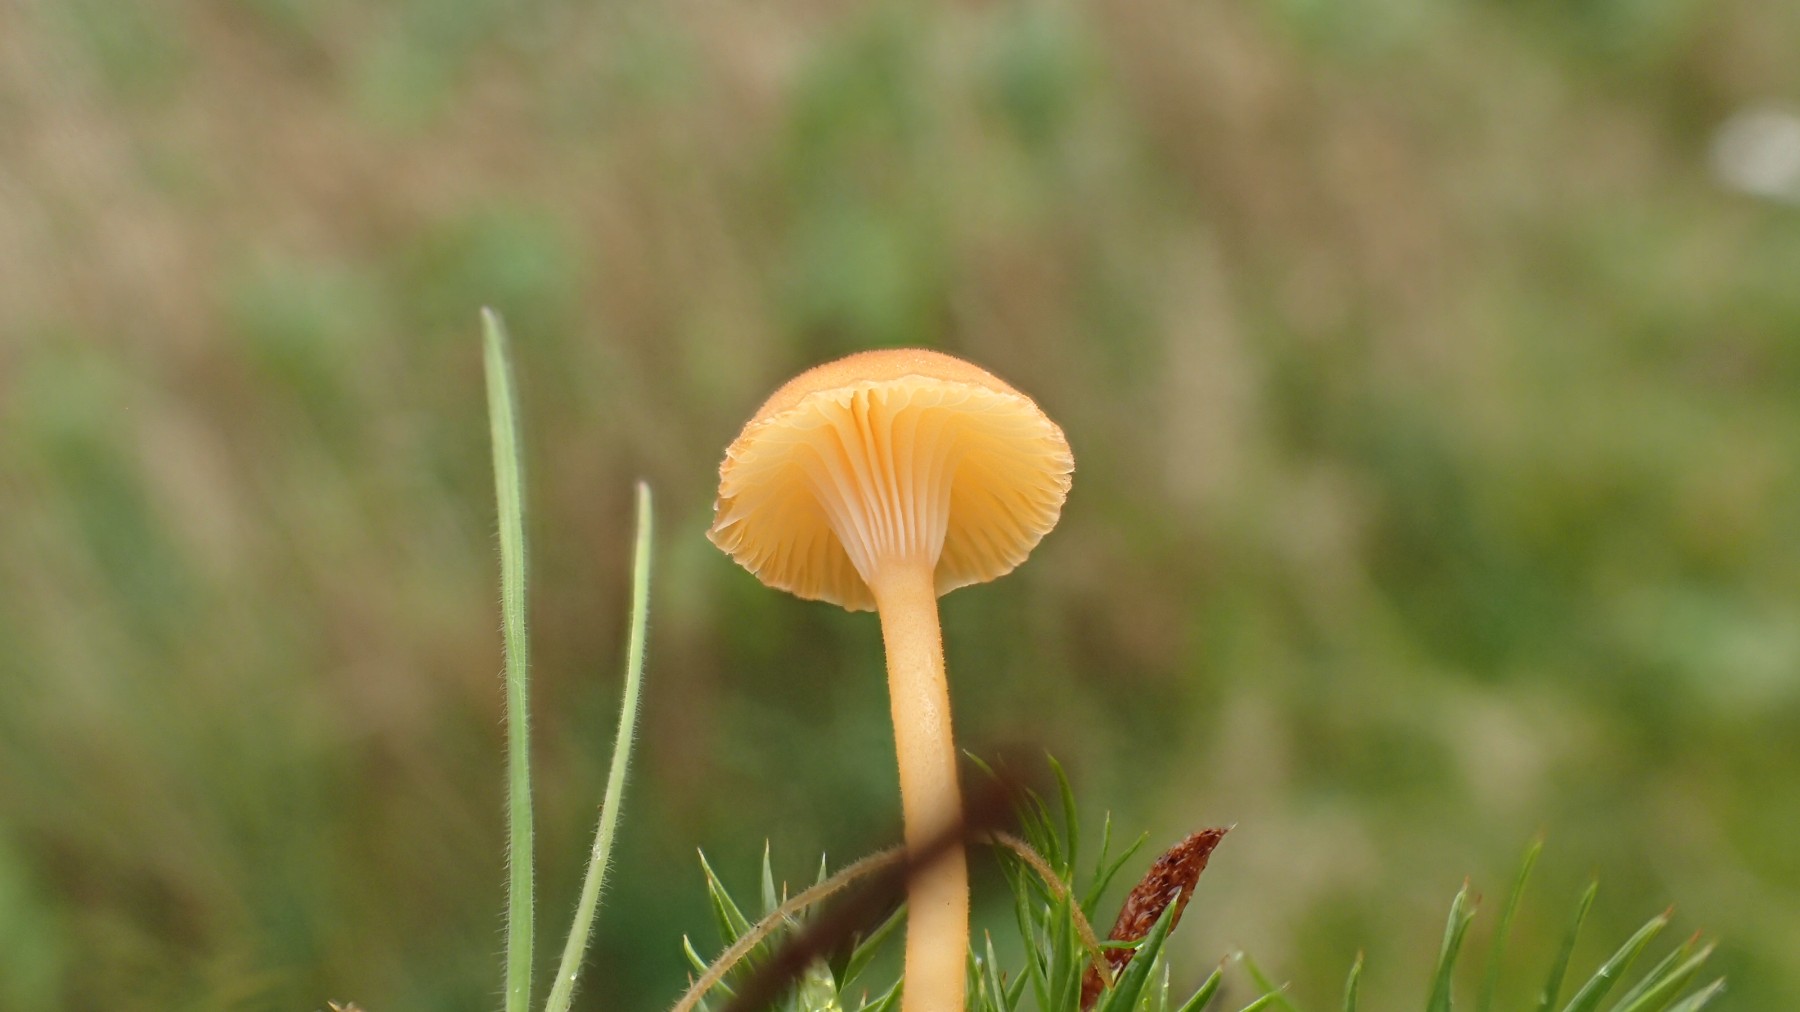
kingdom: Fungi
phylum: Basidiomycota
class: Agaricomycetes
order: Hymenochaetales
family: Rickenellaceae
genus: Rickenella
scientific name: Rickenella fibula
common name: orange mosnavlehat
